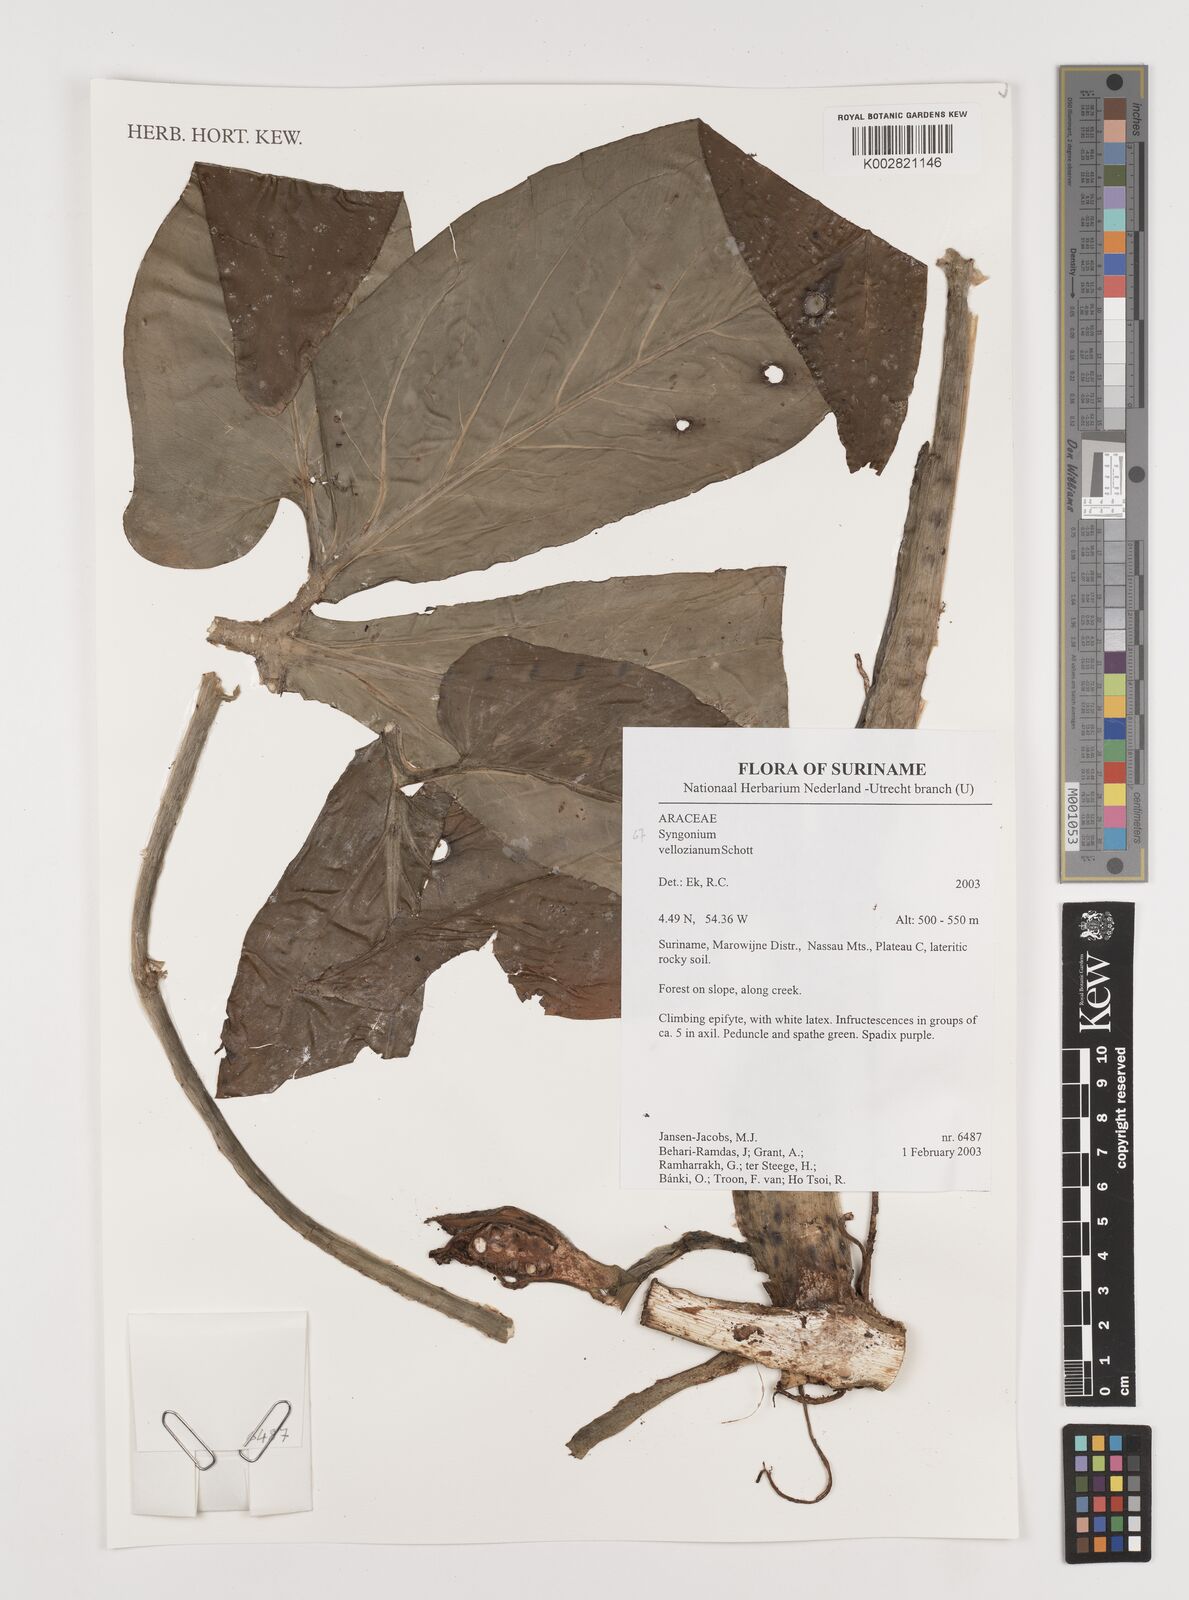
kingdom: Plantae
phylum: Tracheophyta
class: Liliopsida
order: Alismatales
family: Araceae
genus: Syngonium
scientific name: Syngonium podophyllum
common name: American evergreen
